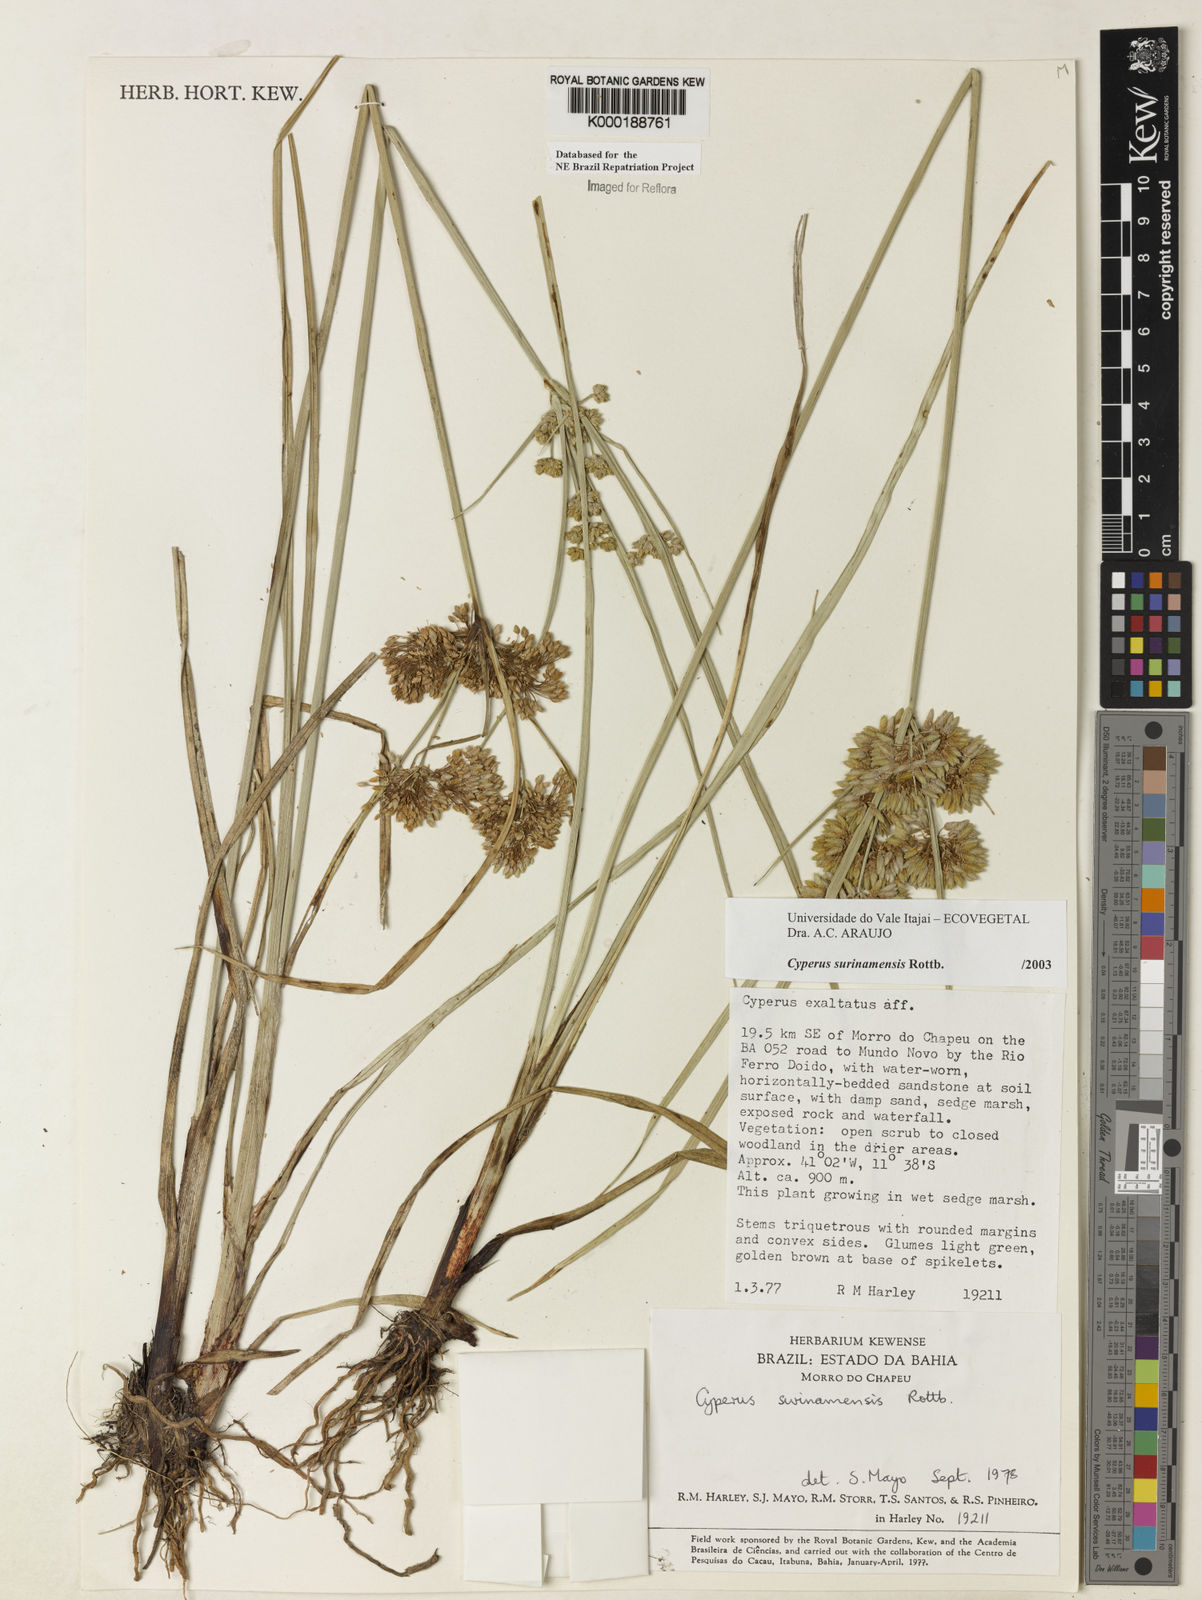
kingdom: Plantae
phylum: Tracheophyta
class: Liliopsida
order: Poales
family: Cyperaceae
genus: Cyperus
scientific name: Cyperus surinamensis
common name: Tropical flat sedge
